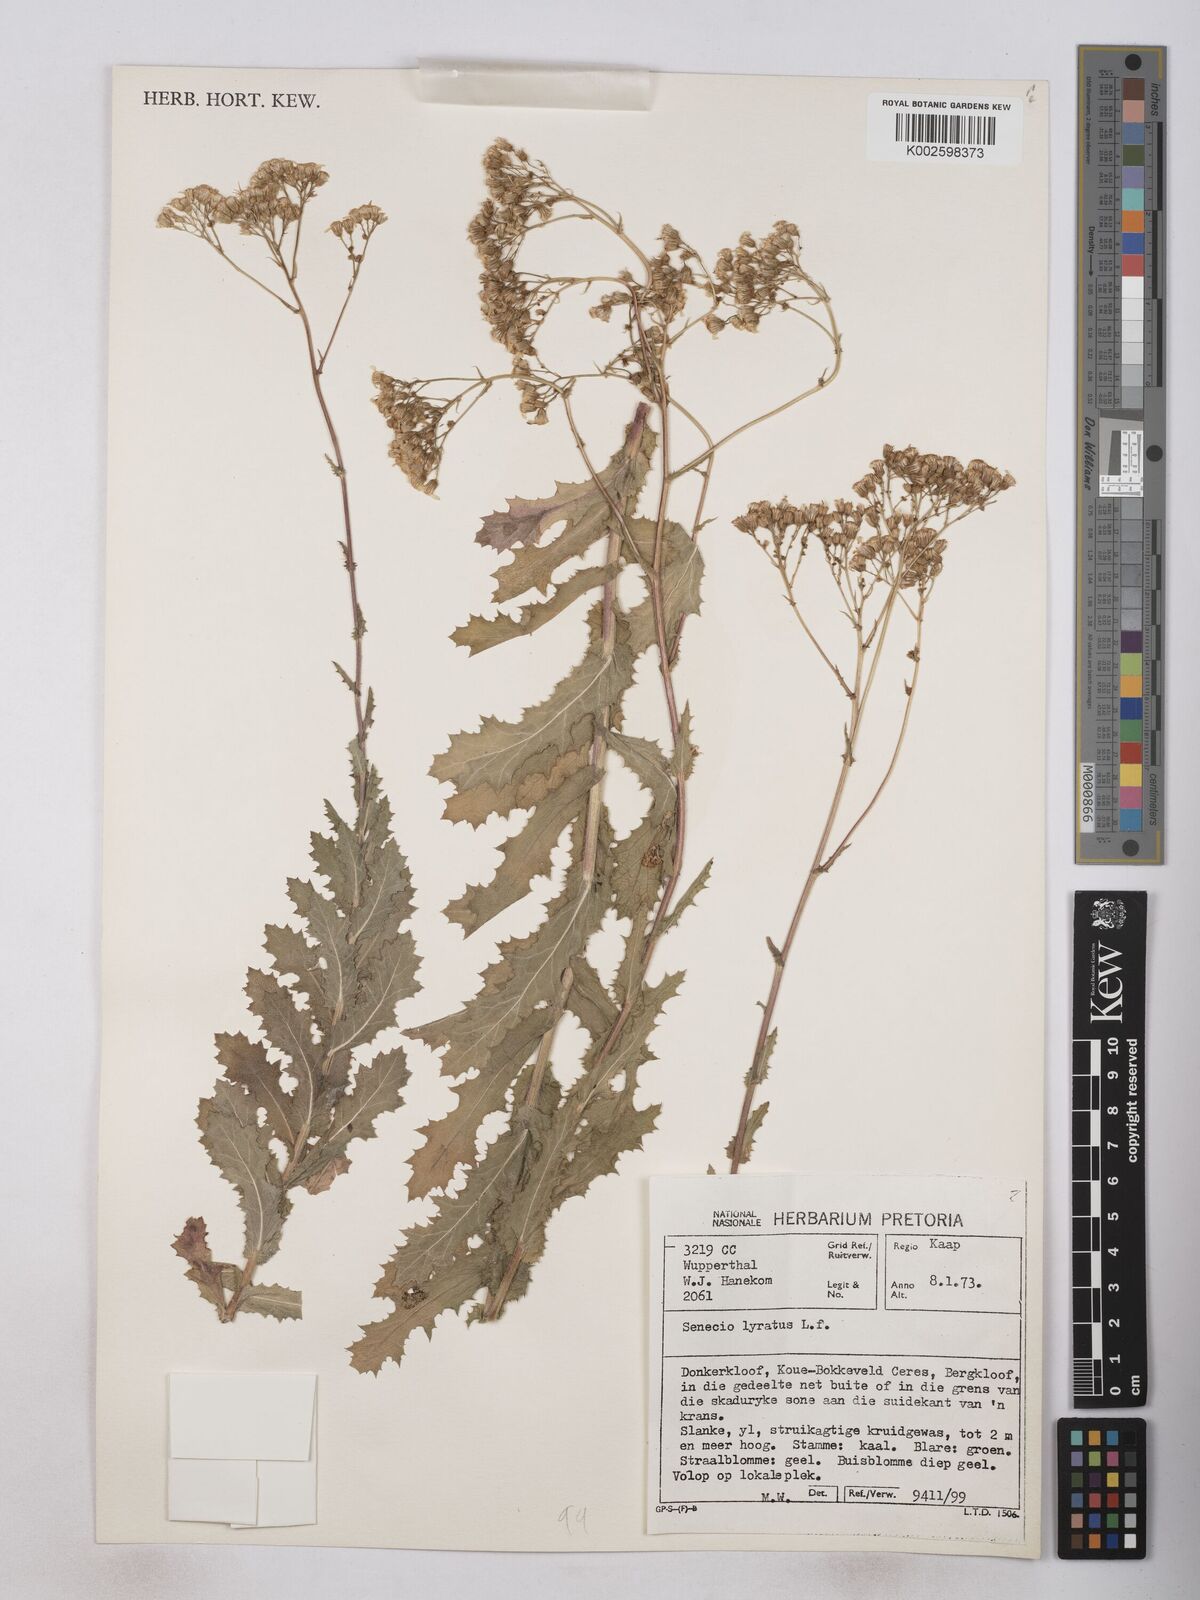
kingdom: Plantae
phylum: Tracheophyta
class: Magnoliopsida
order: Asterales
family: Asteraceae
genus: Senecio
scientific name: Senecio anapetes
